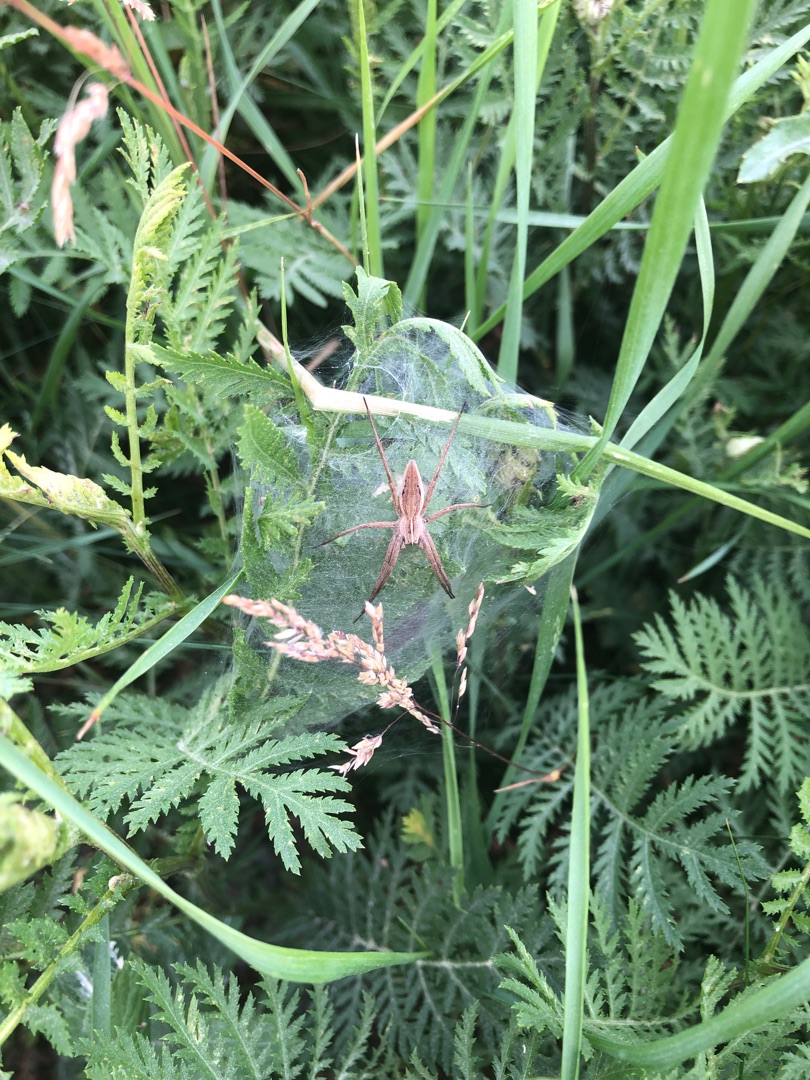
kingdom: Animalia
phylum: Arthropoda
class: Arachnida
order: Araneae
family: Pisauridae
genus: Pisaura
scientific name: Pisaura mirabilis
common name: Almindelig rovedderkop
